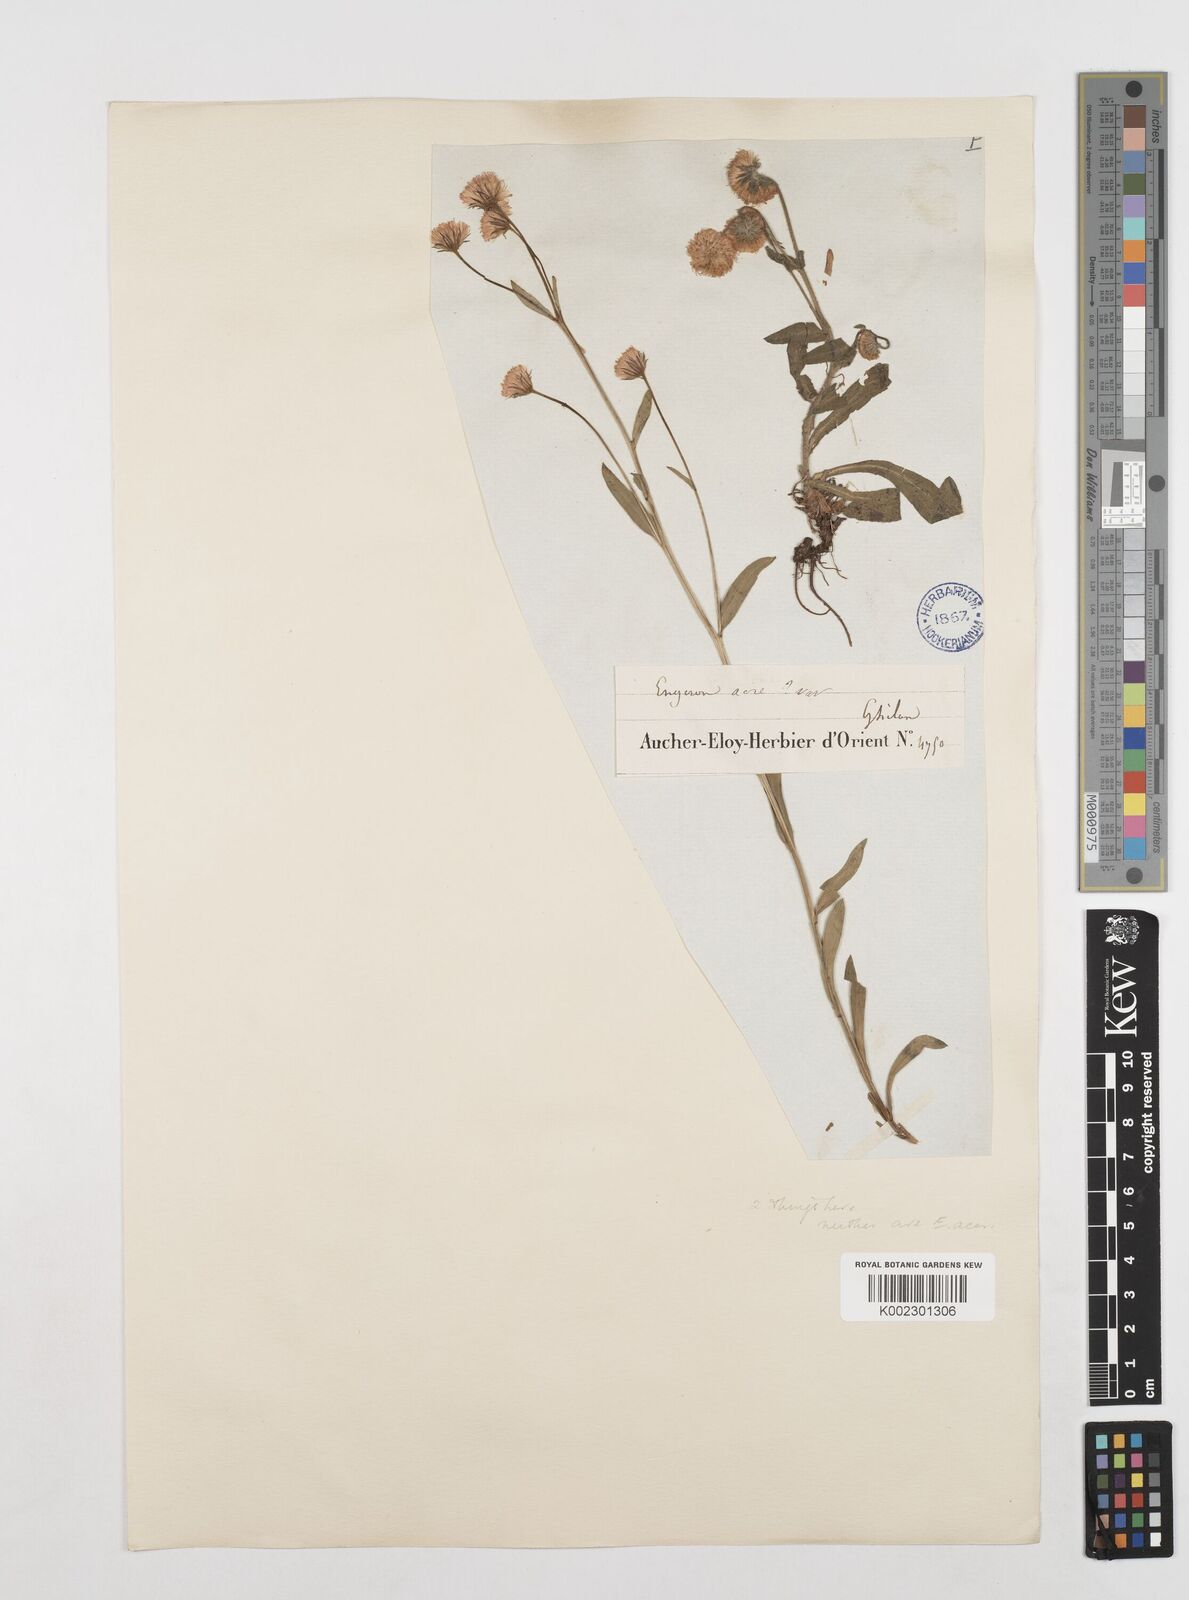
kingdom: Plantae
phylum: Tracheophyta
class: Magnoliopsida
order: Asterales
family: Asteraceae
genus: Erigeron
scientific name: Erigeron acris
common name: Blue fleabane
